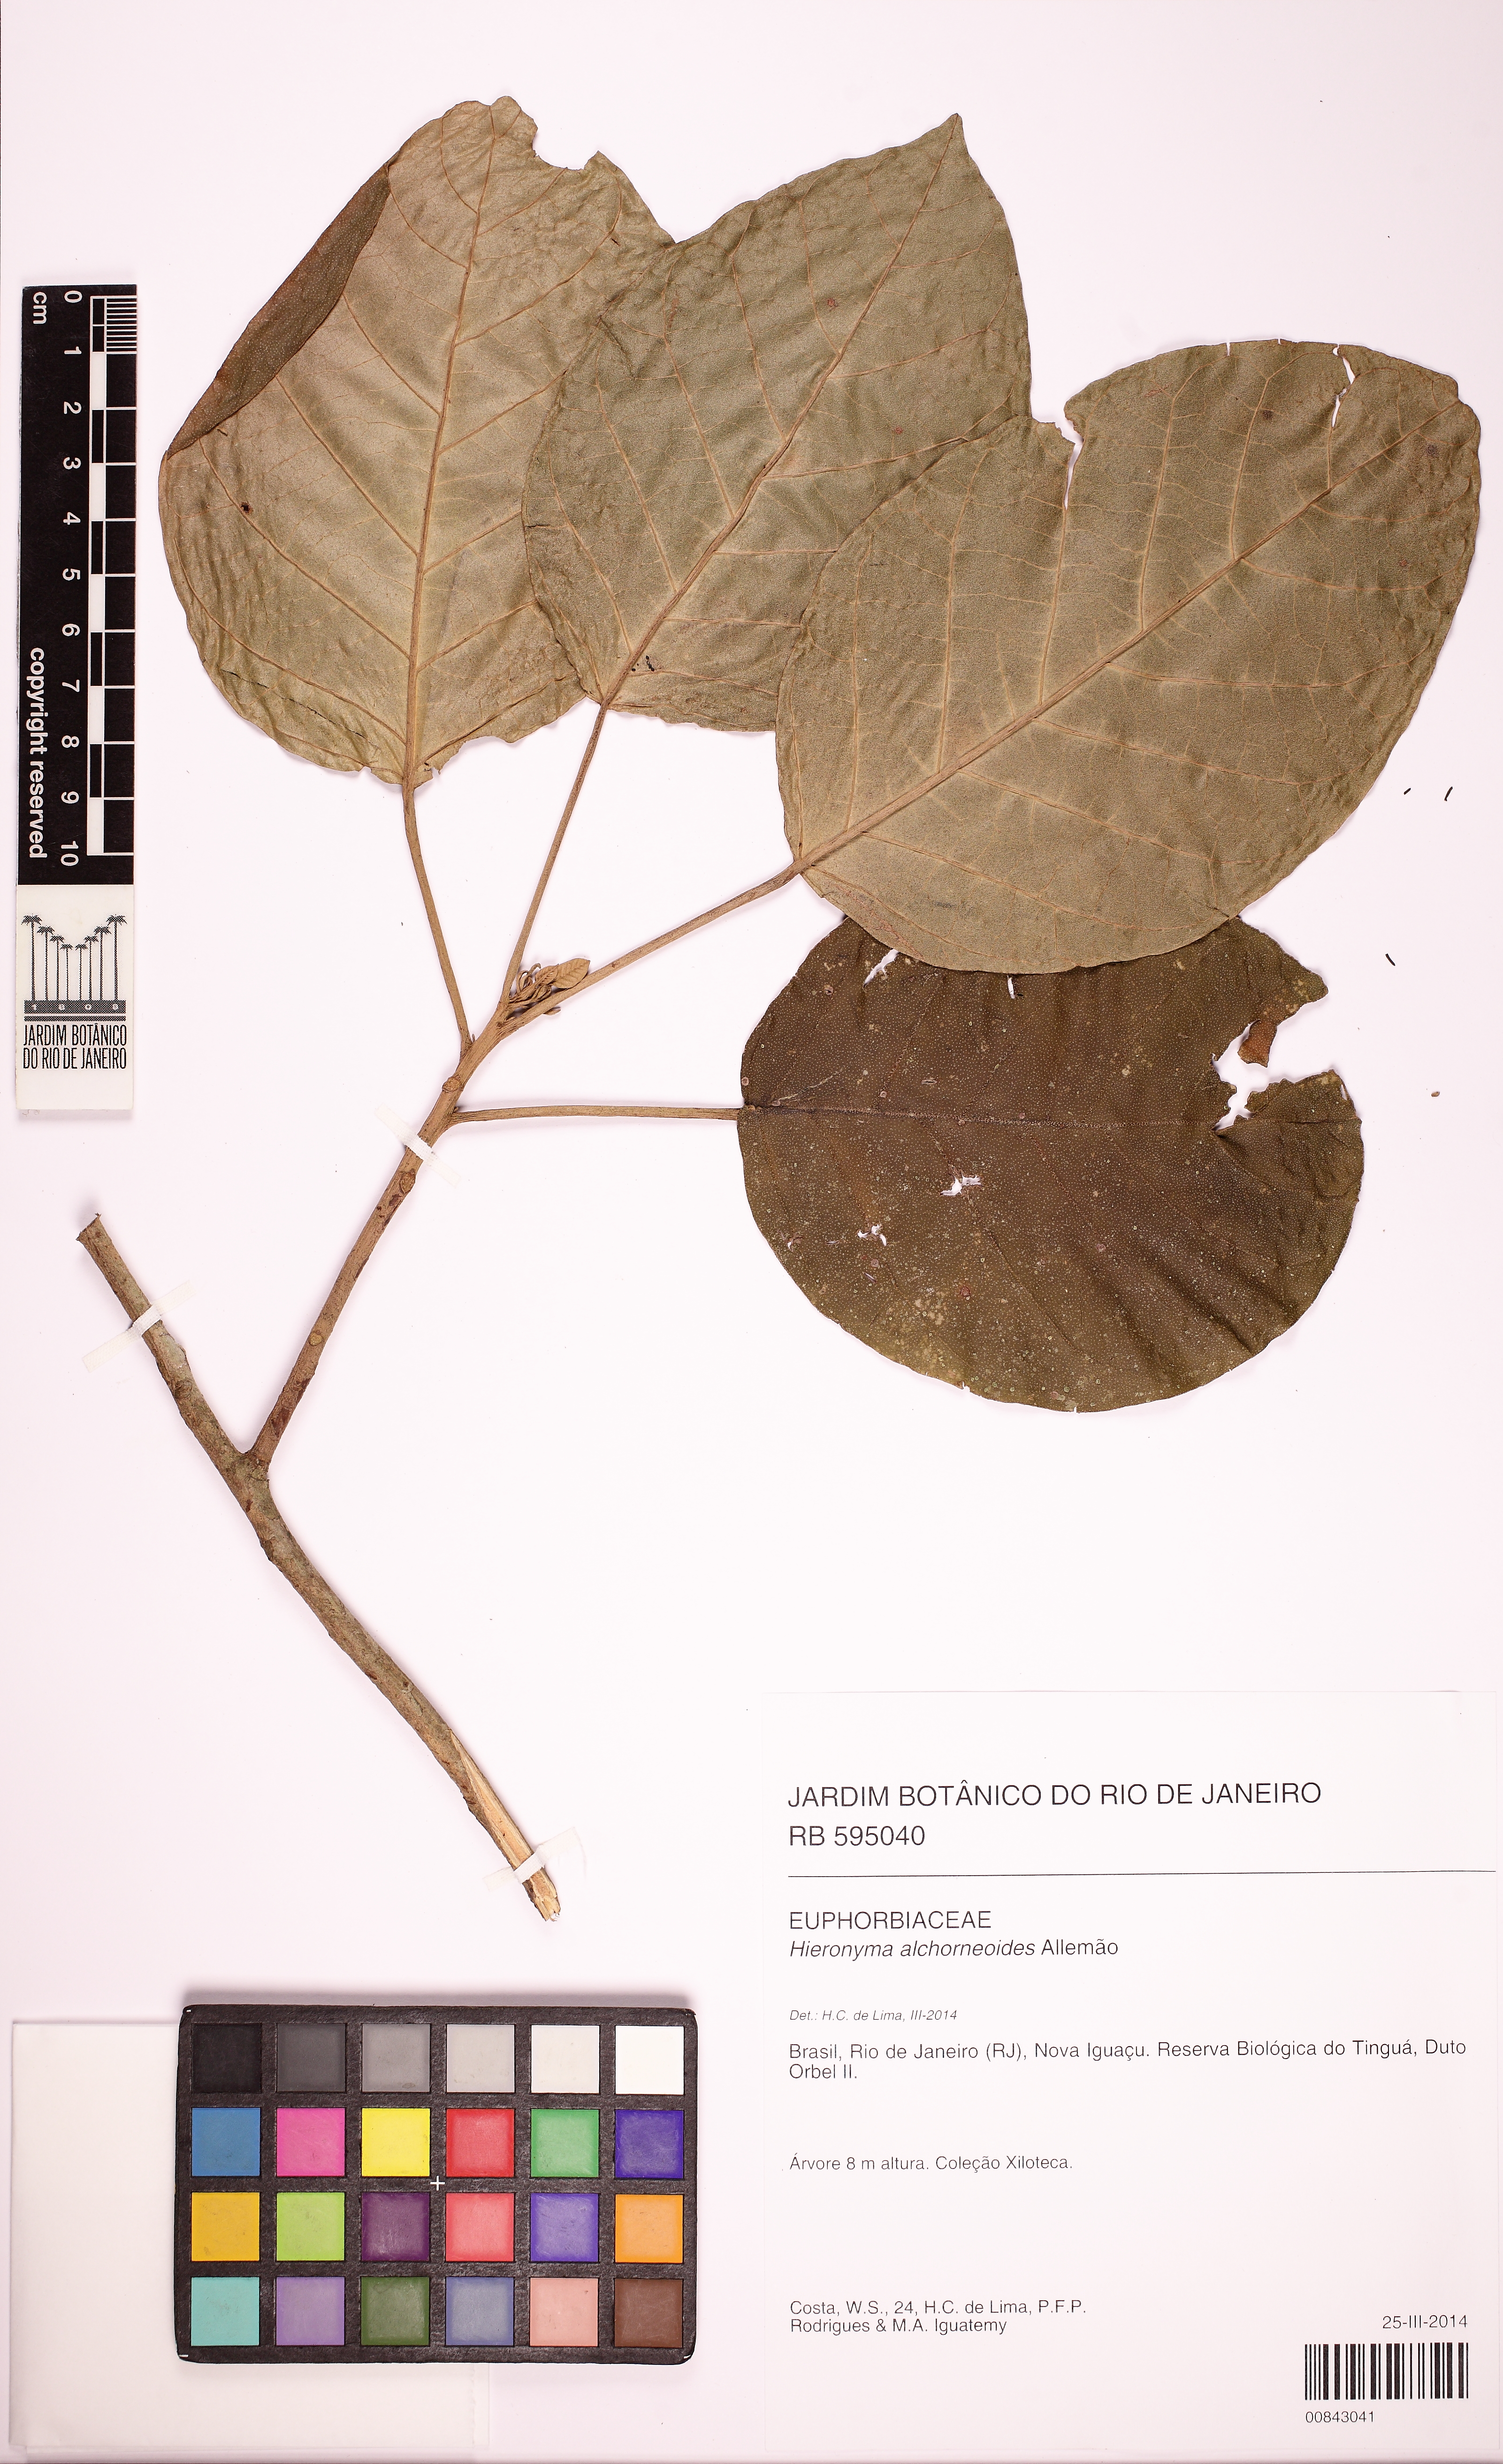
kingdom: Plantae
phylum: Tracheophyta
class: Magnoliopsida
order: Malpighiales
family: Phyllanthaceae
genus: Hieronyma
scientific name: Hieronyma alchorneoides
